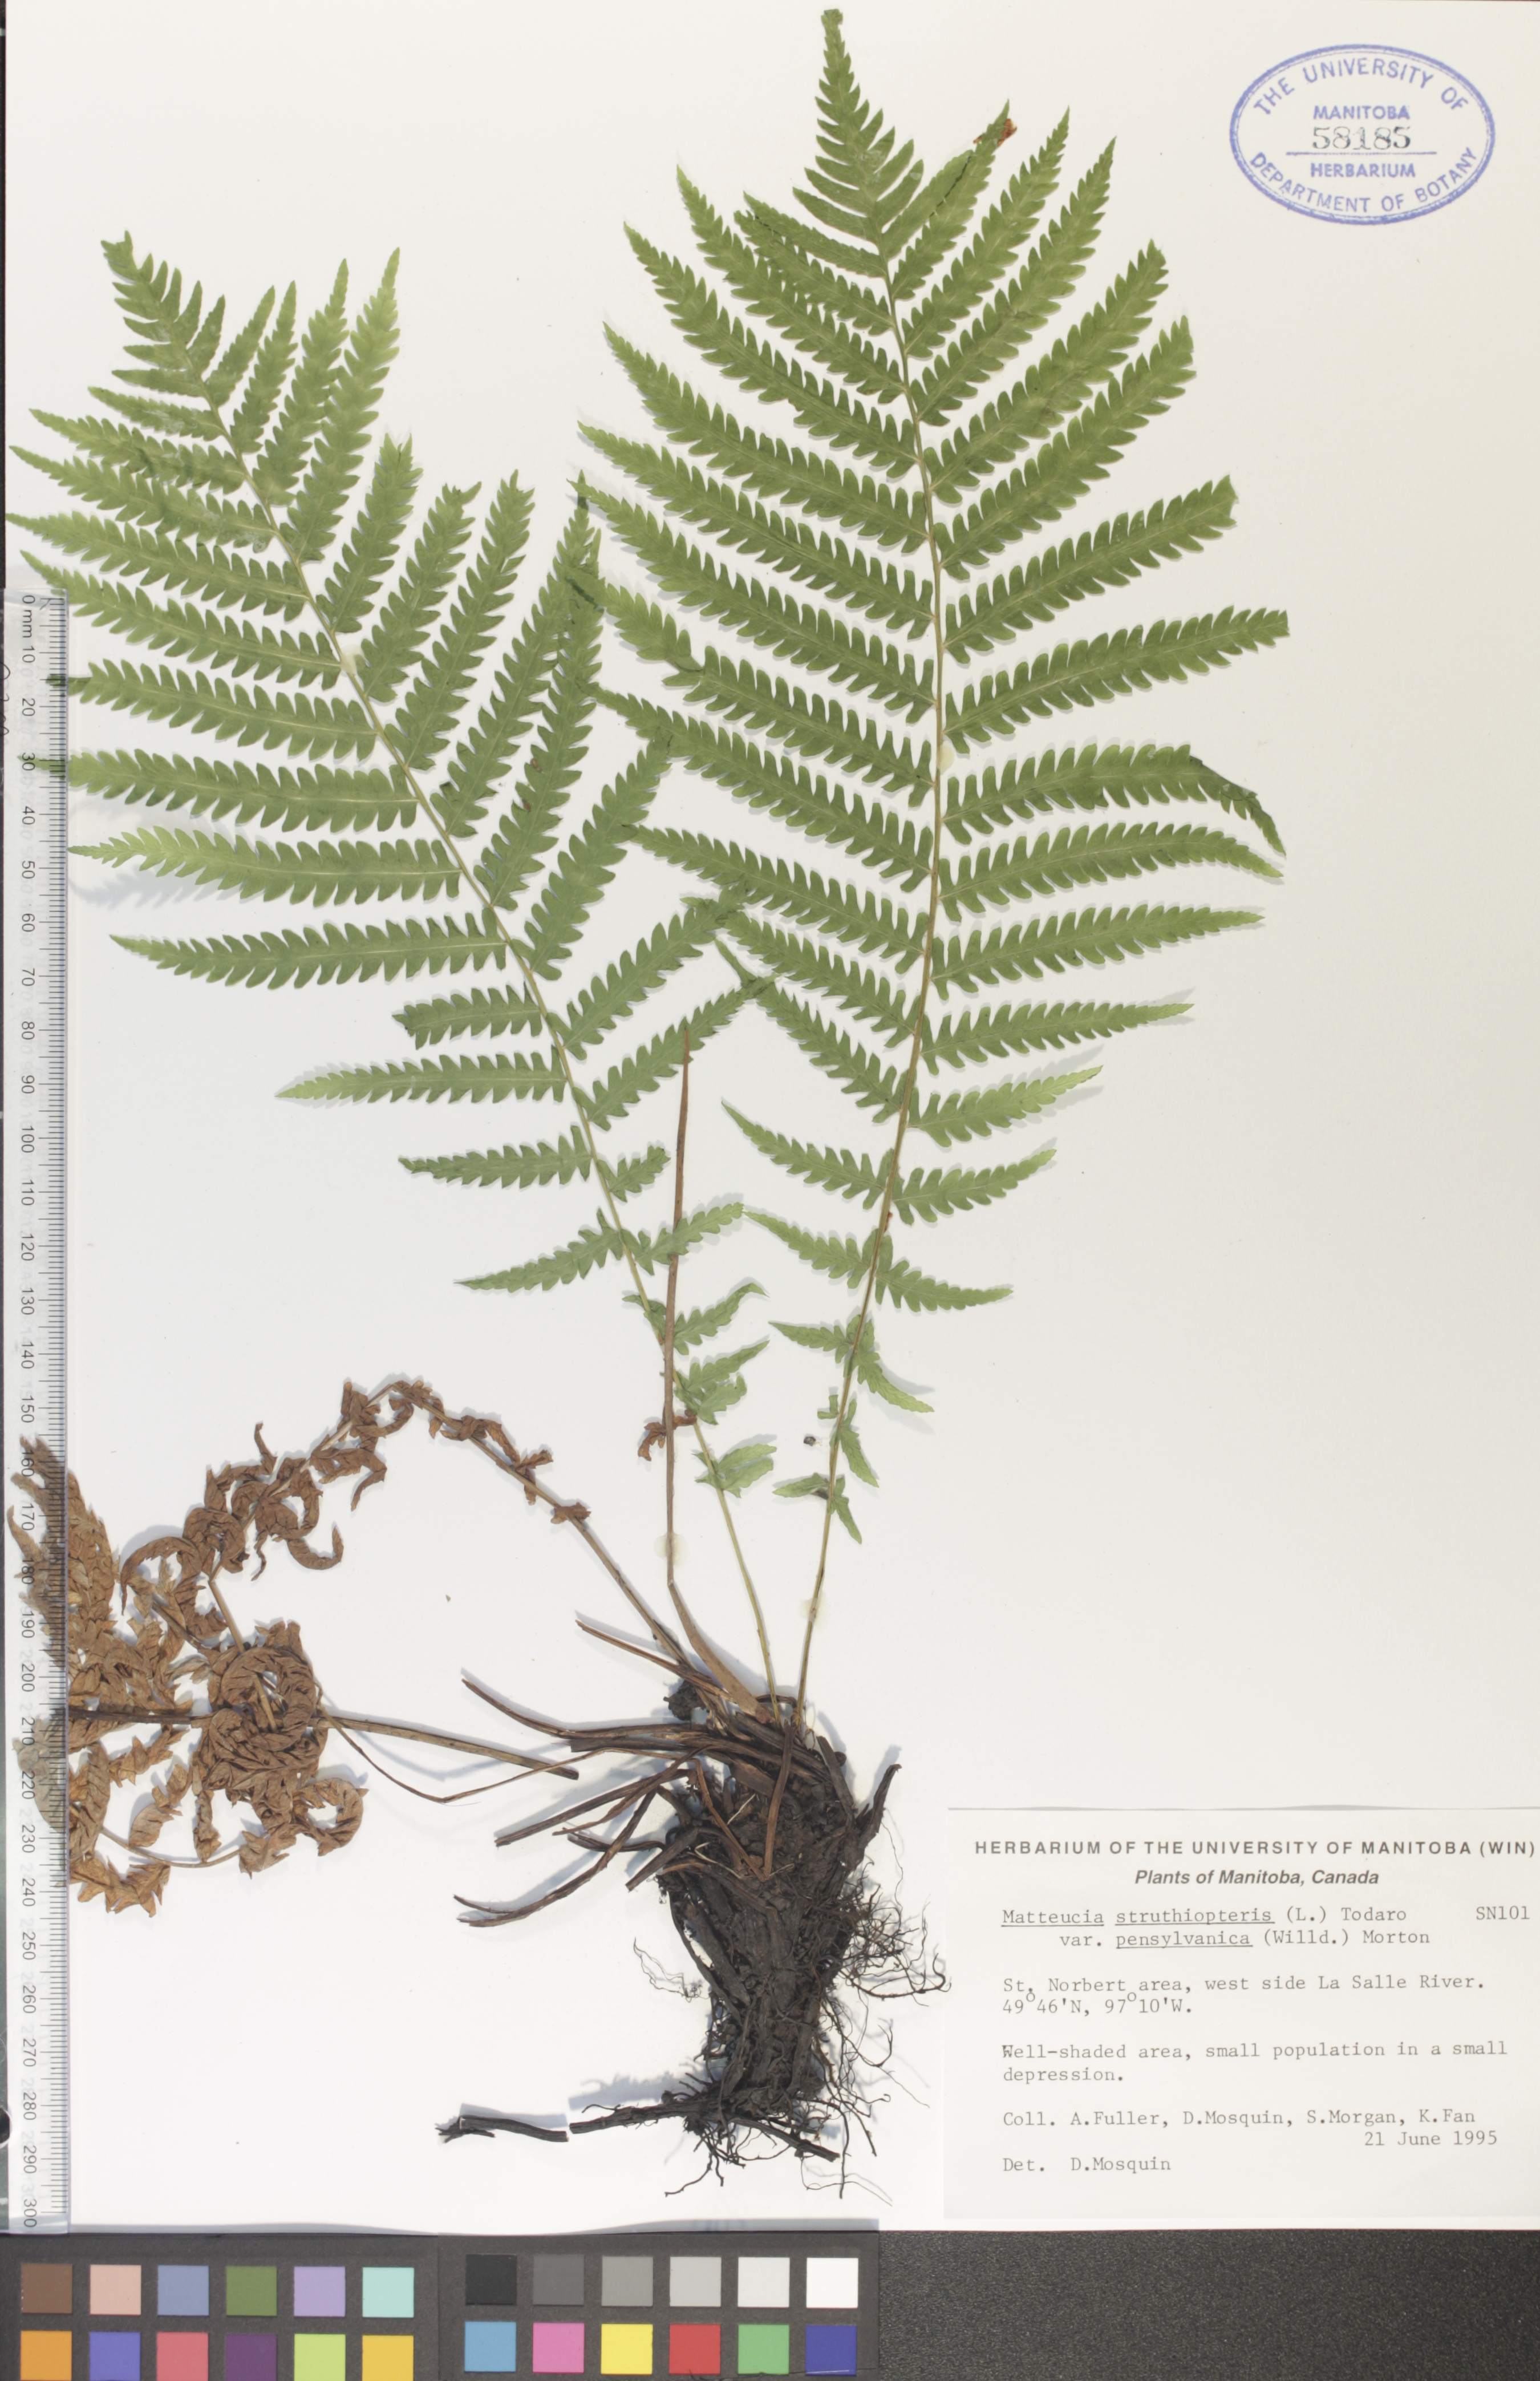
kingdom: Plantae
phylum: Tracheophyta
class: Polypodiopsida
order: Polypodiales
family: Onocleaceae
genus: Matteuccia
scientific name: Matteuccia pensylvanica
